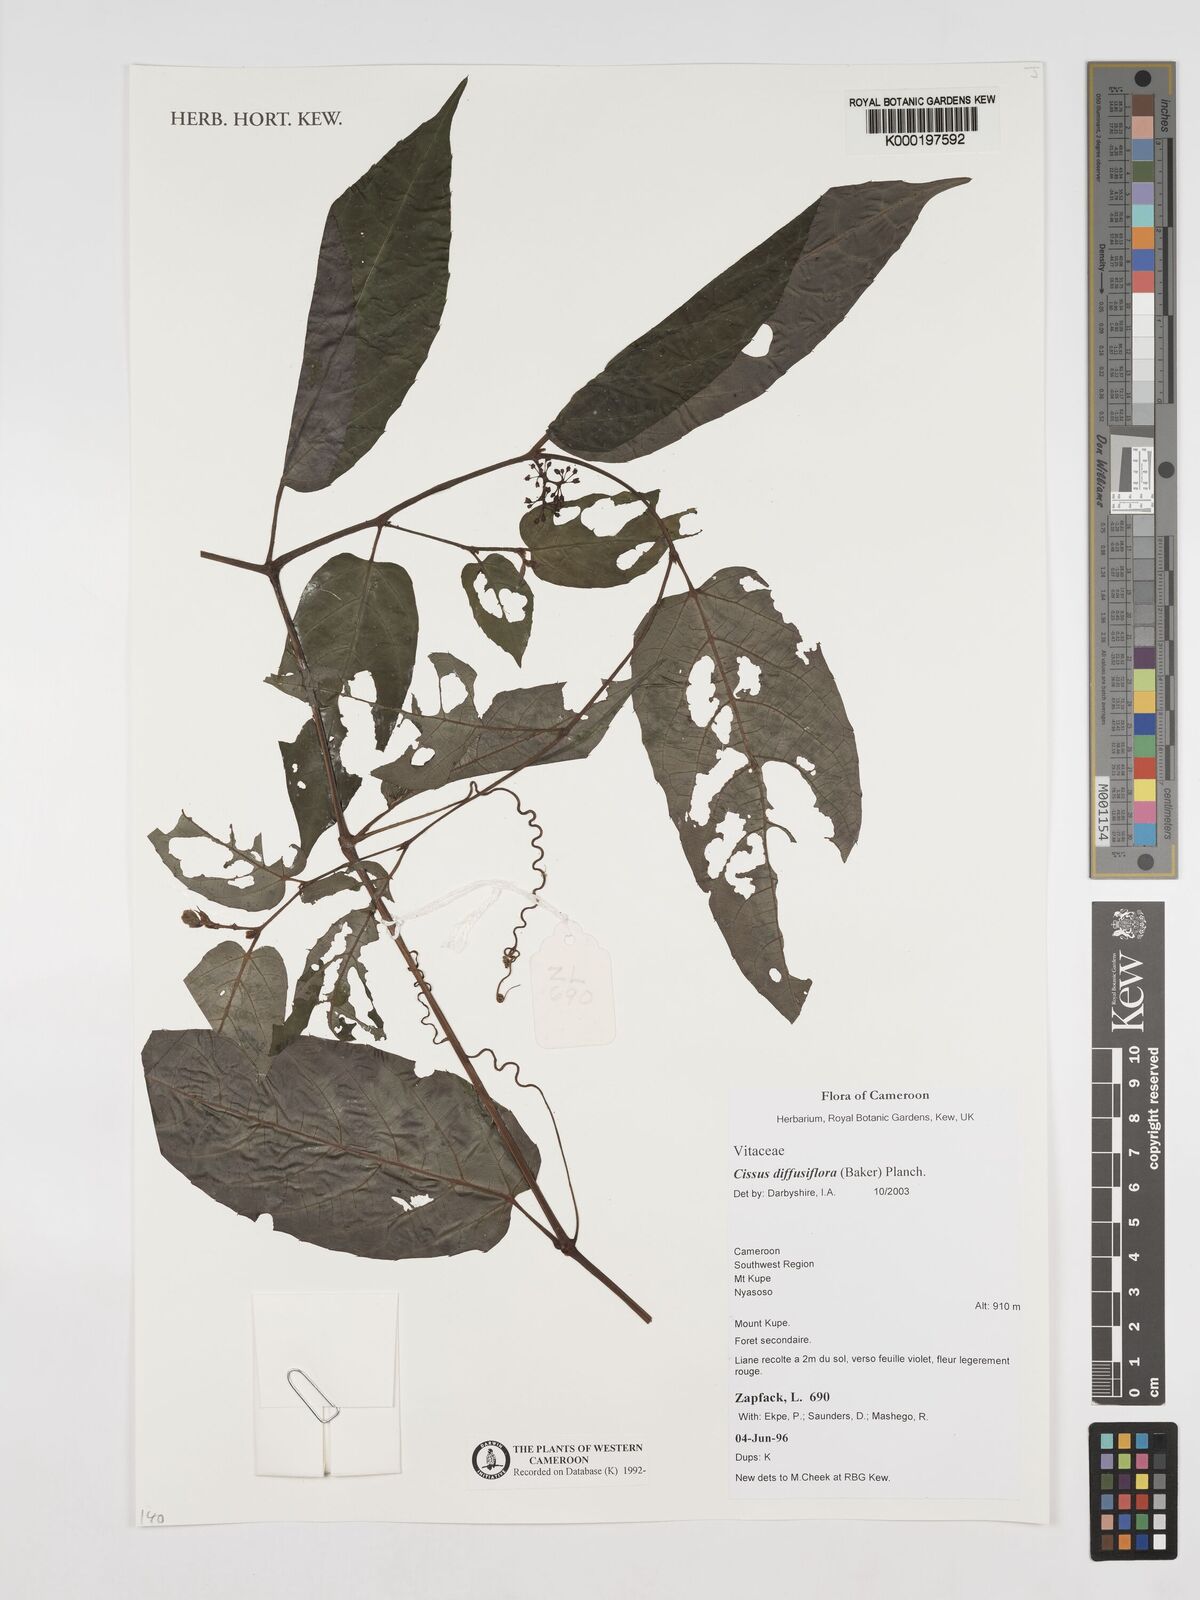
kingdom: Plantae
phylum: Tracheophyta
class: Magnoliopsida
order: Vitales
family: Vitaceae
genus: Cissus
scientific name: Cissus diffusiflora
